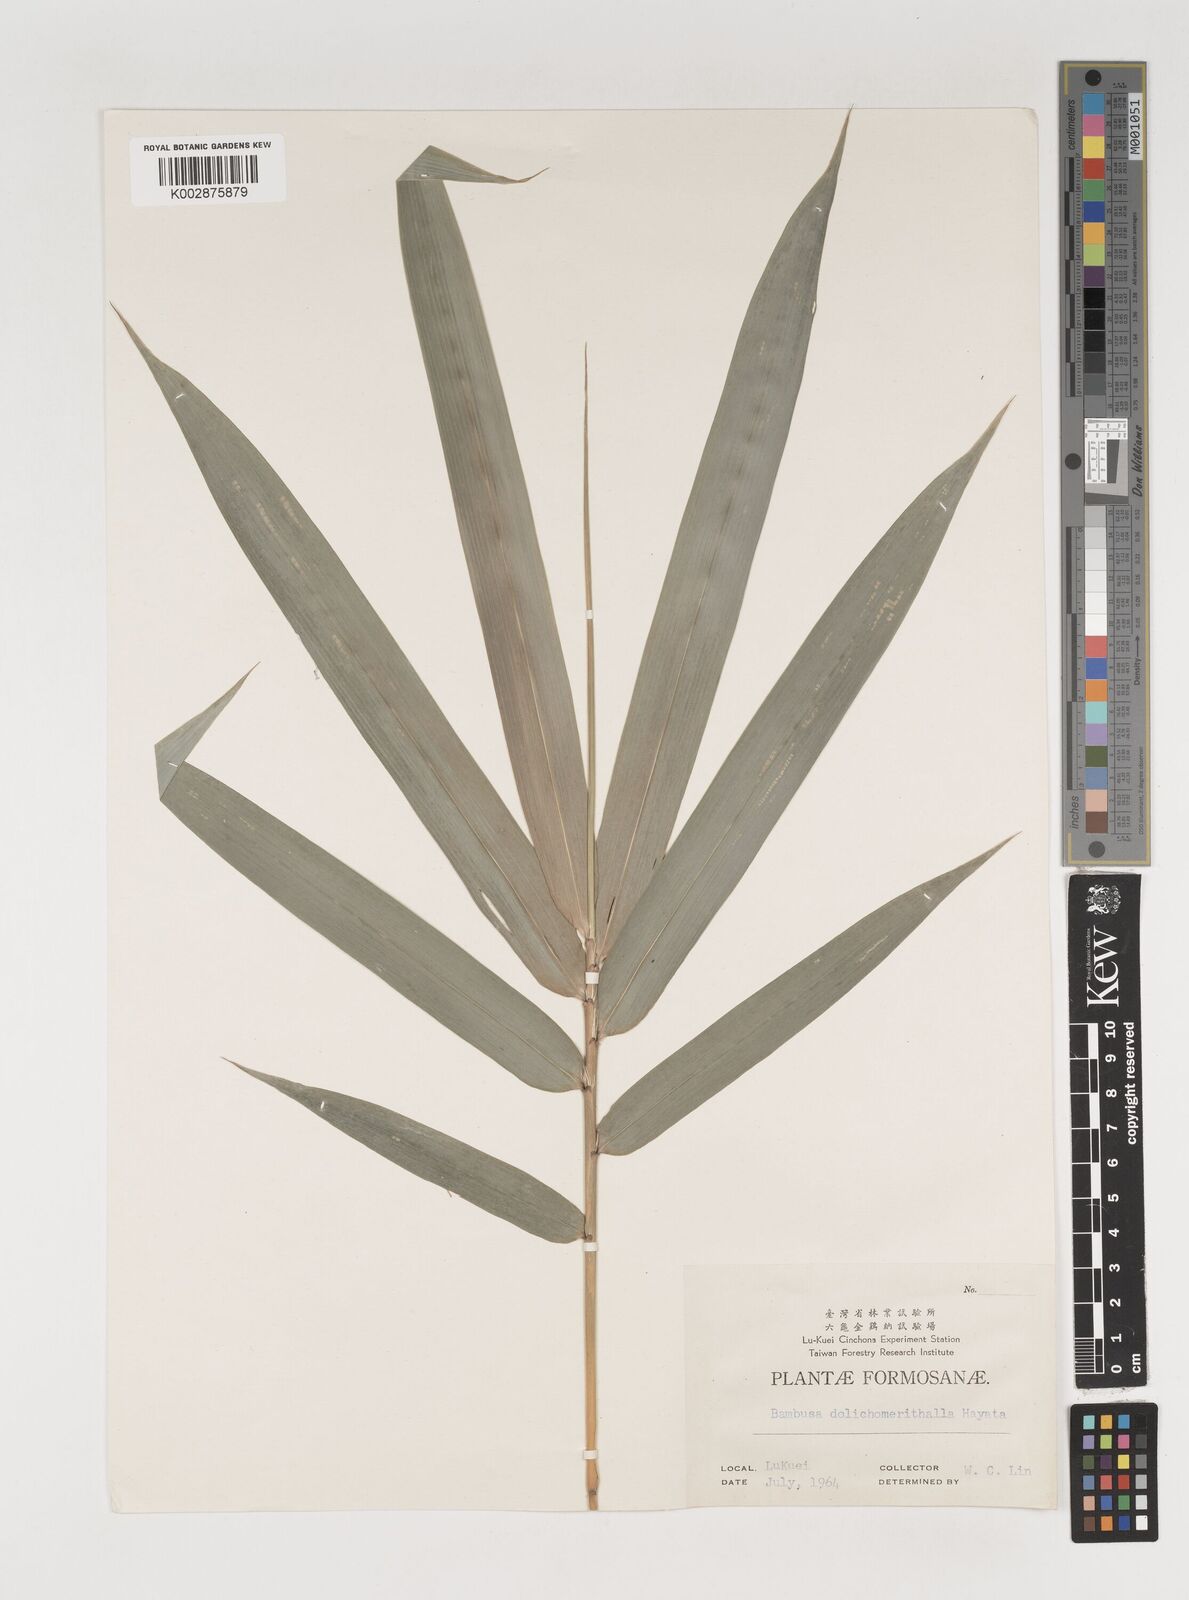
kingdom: Plantae
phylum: Tracheophyta
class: Liliopsida
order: Poales
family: Poaceae
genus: Bambusa
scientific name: Bambusa multiplex
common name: Hedge bamboo
